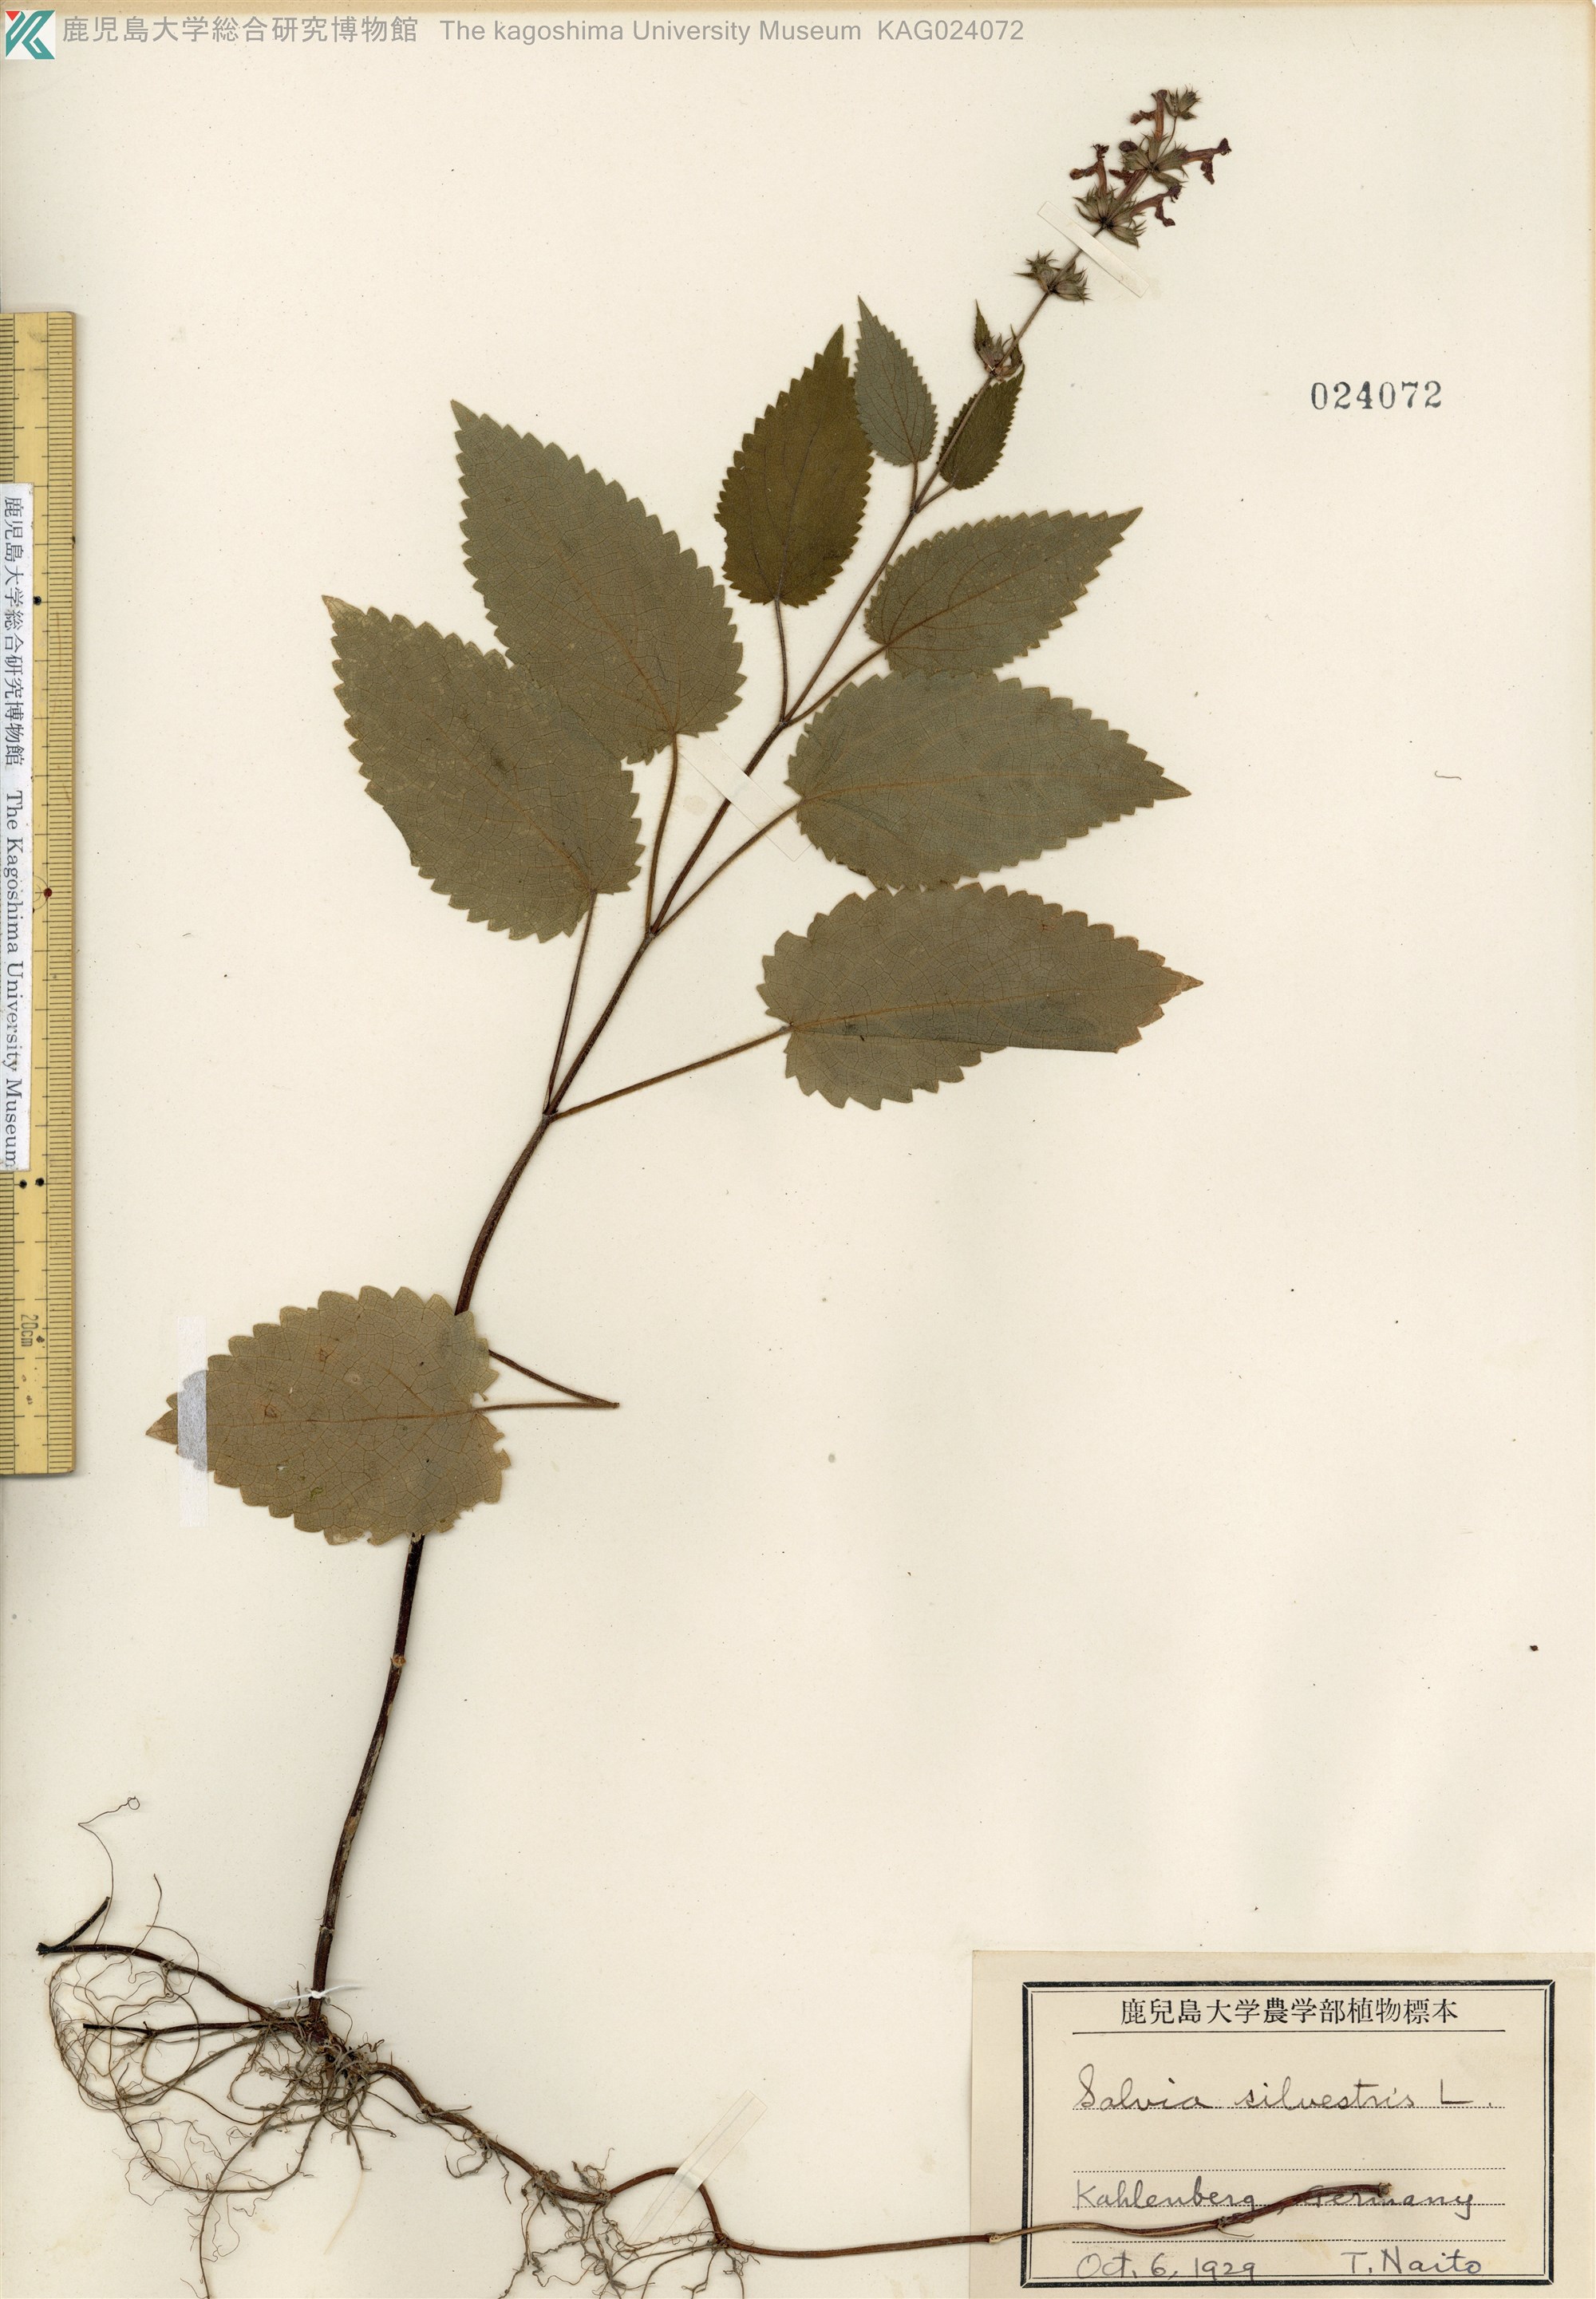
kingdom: Plantae
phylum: Tracheophyta
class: Magnoliopsida
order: Lamiales
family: Lamiaceae
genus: Salvia
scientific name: Salvia sylvestris
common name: Woodland sage
